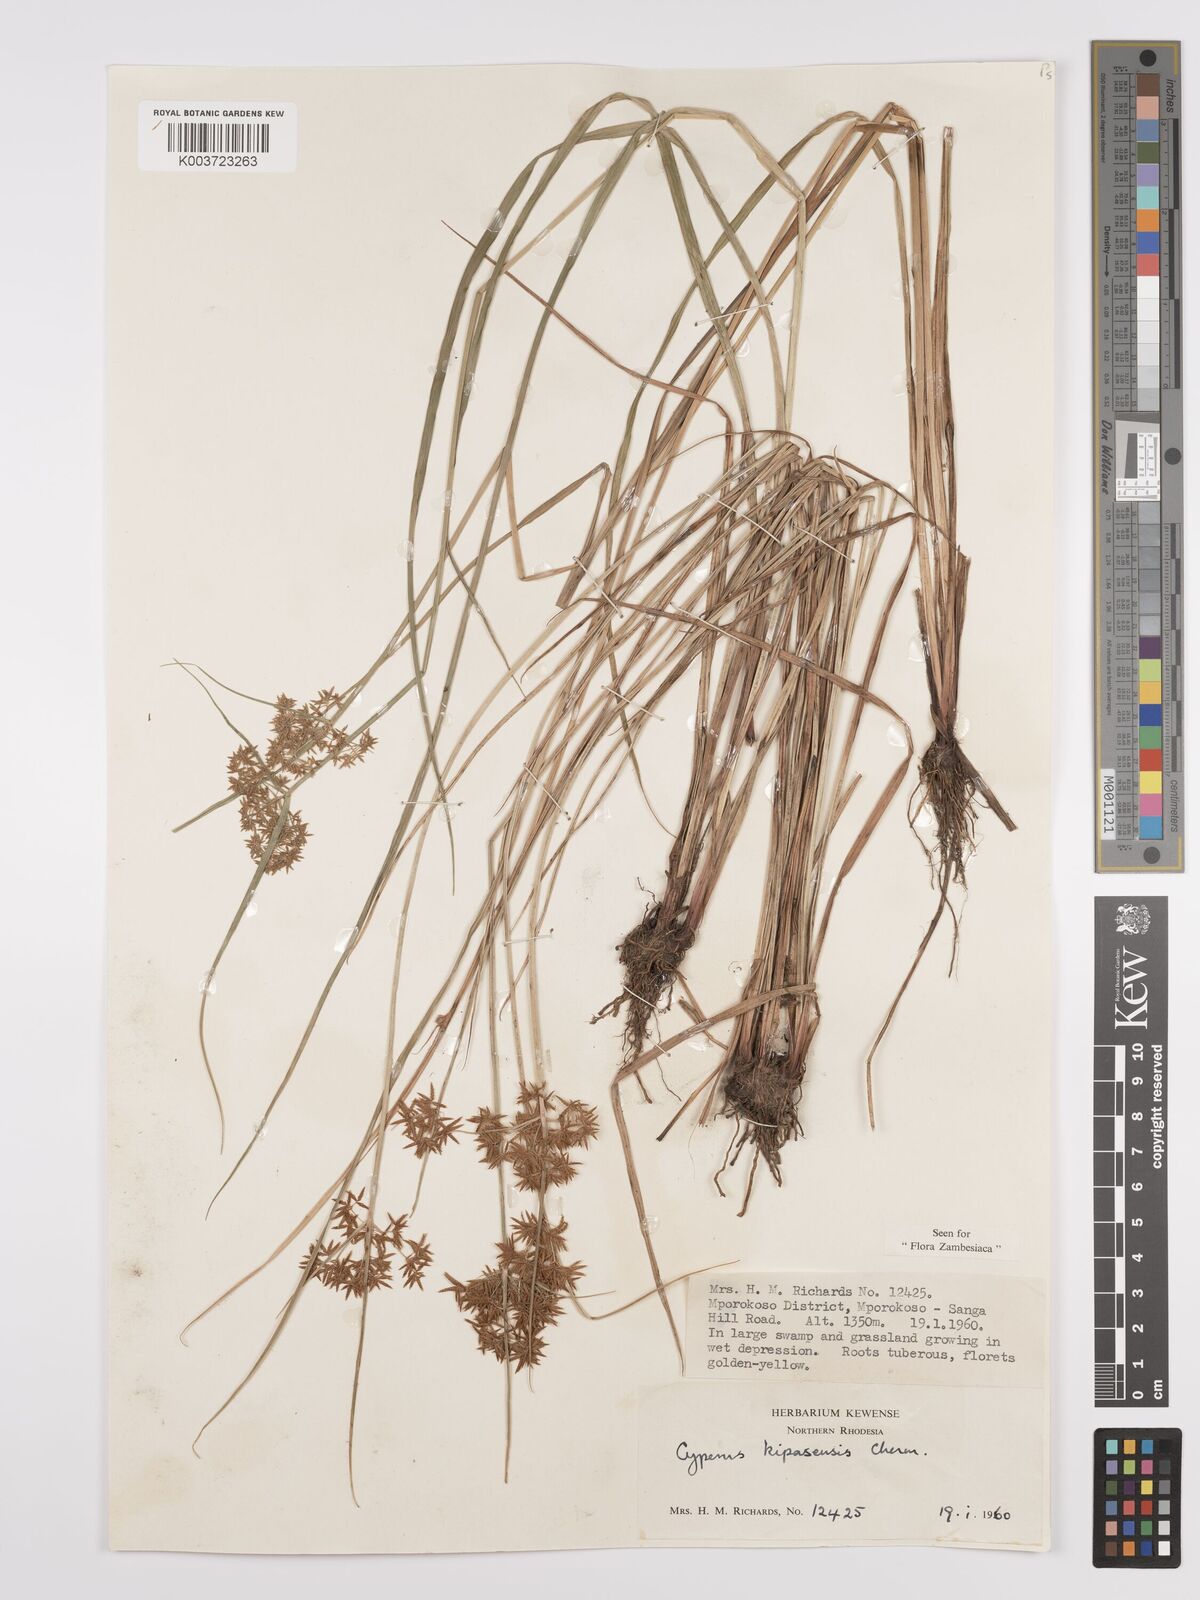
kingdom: Plantae
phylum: Tracheophyta
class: Liliopsida
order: Poales
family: Cyperaceae
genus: Cyperus
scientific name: Cyperus kipasensis
